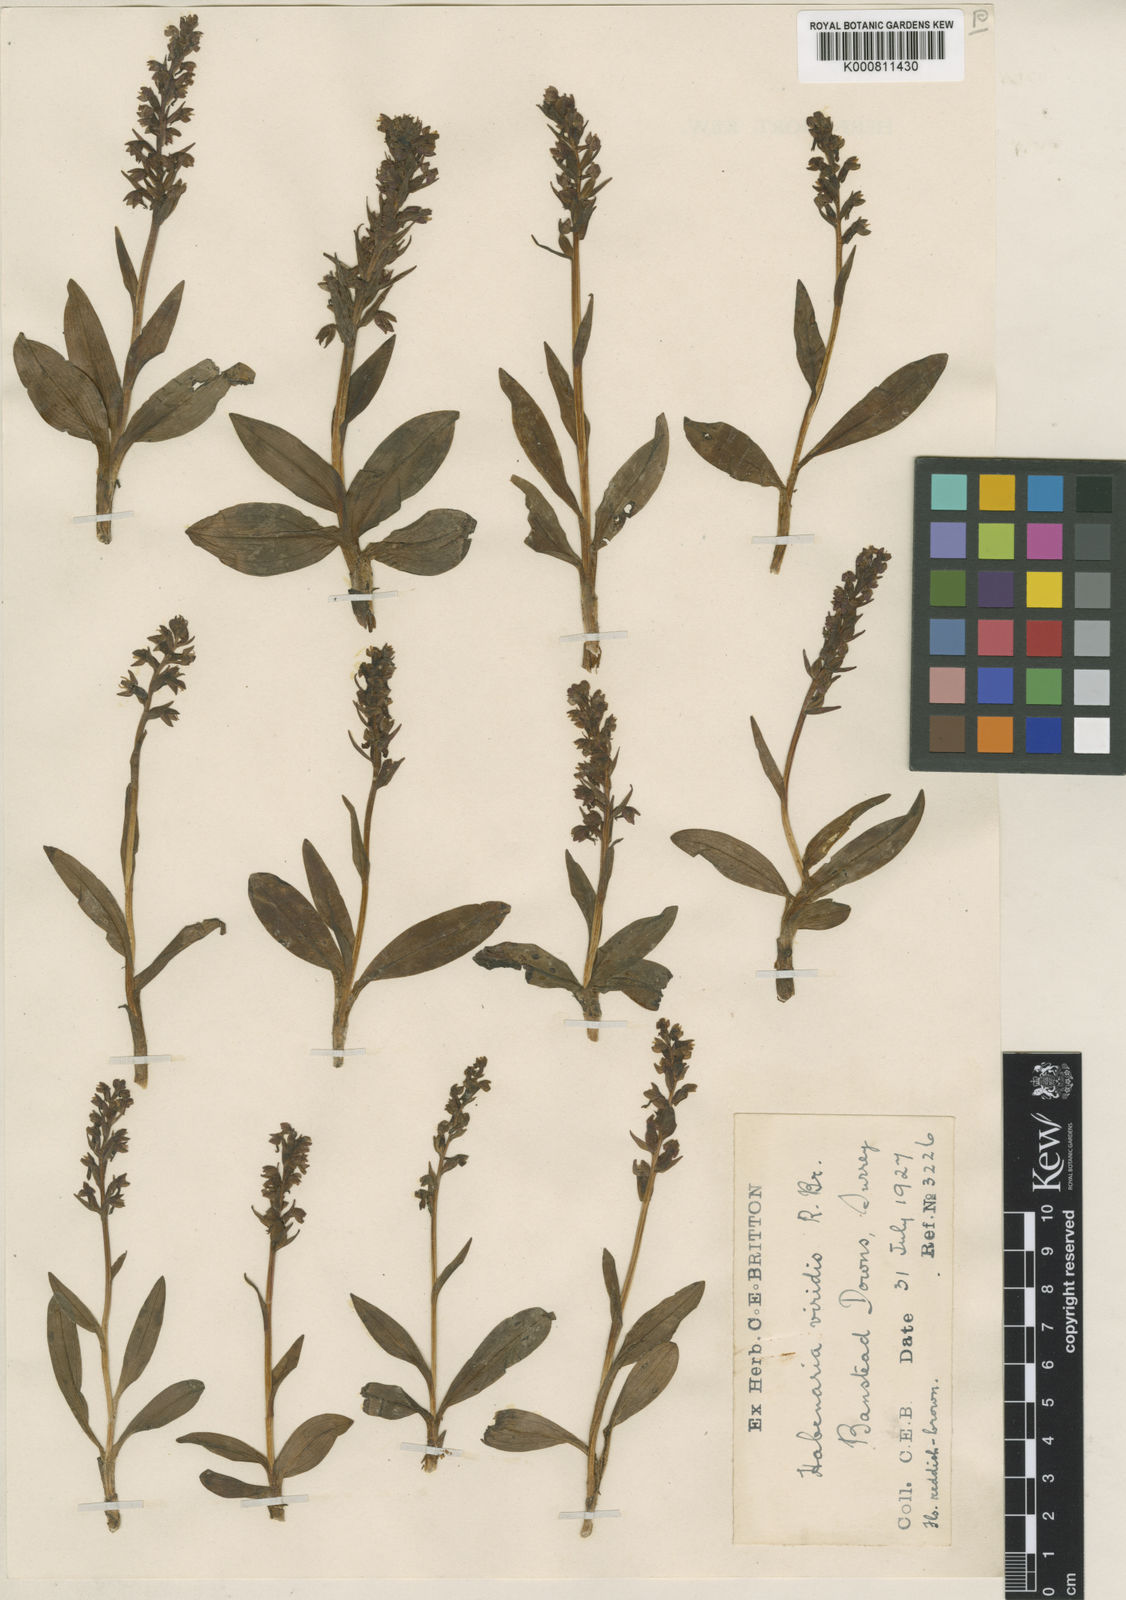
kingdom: Plantae
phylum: Tracheophyta
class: Liliopsida
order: Asparagales
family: Orchidaceae
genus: Dactylorhiza
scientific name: Dactylorhiza viridis
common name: Longbract frog orchid
